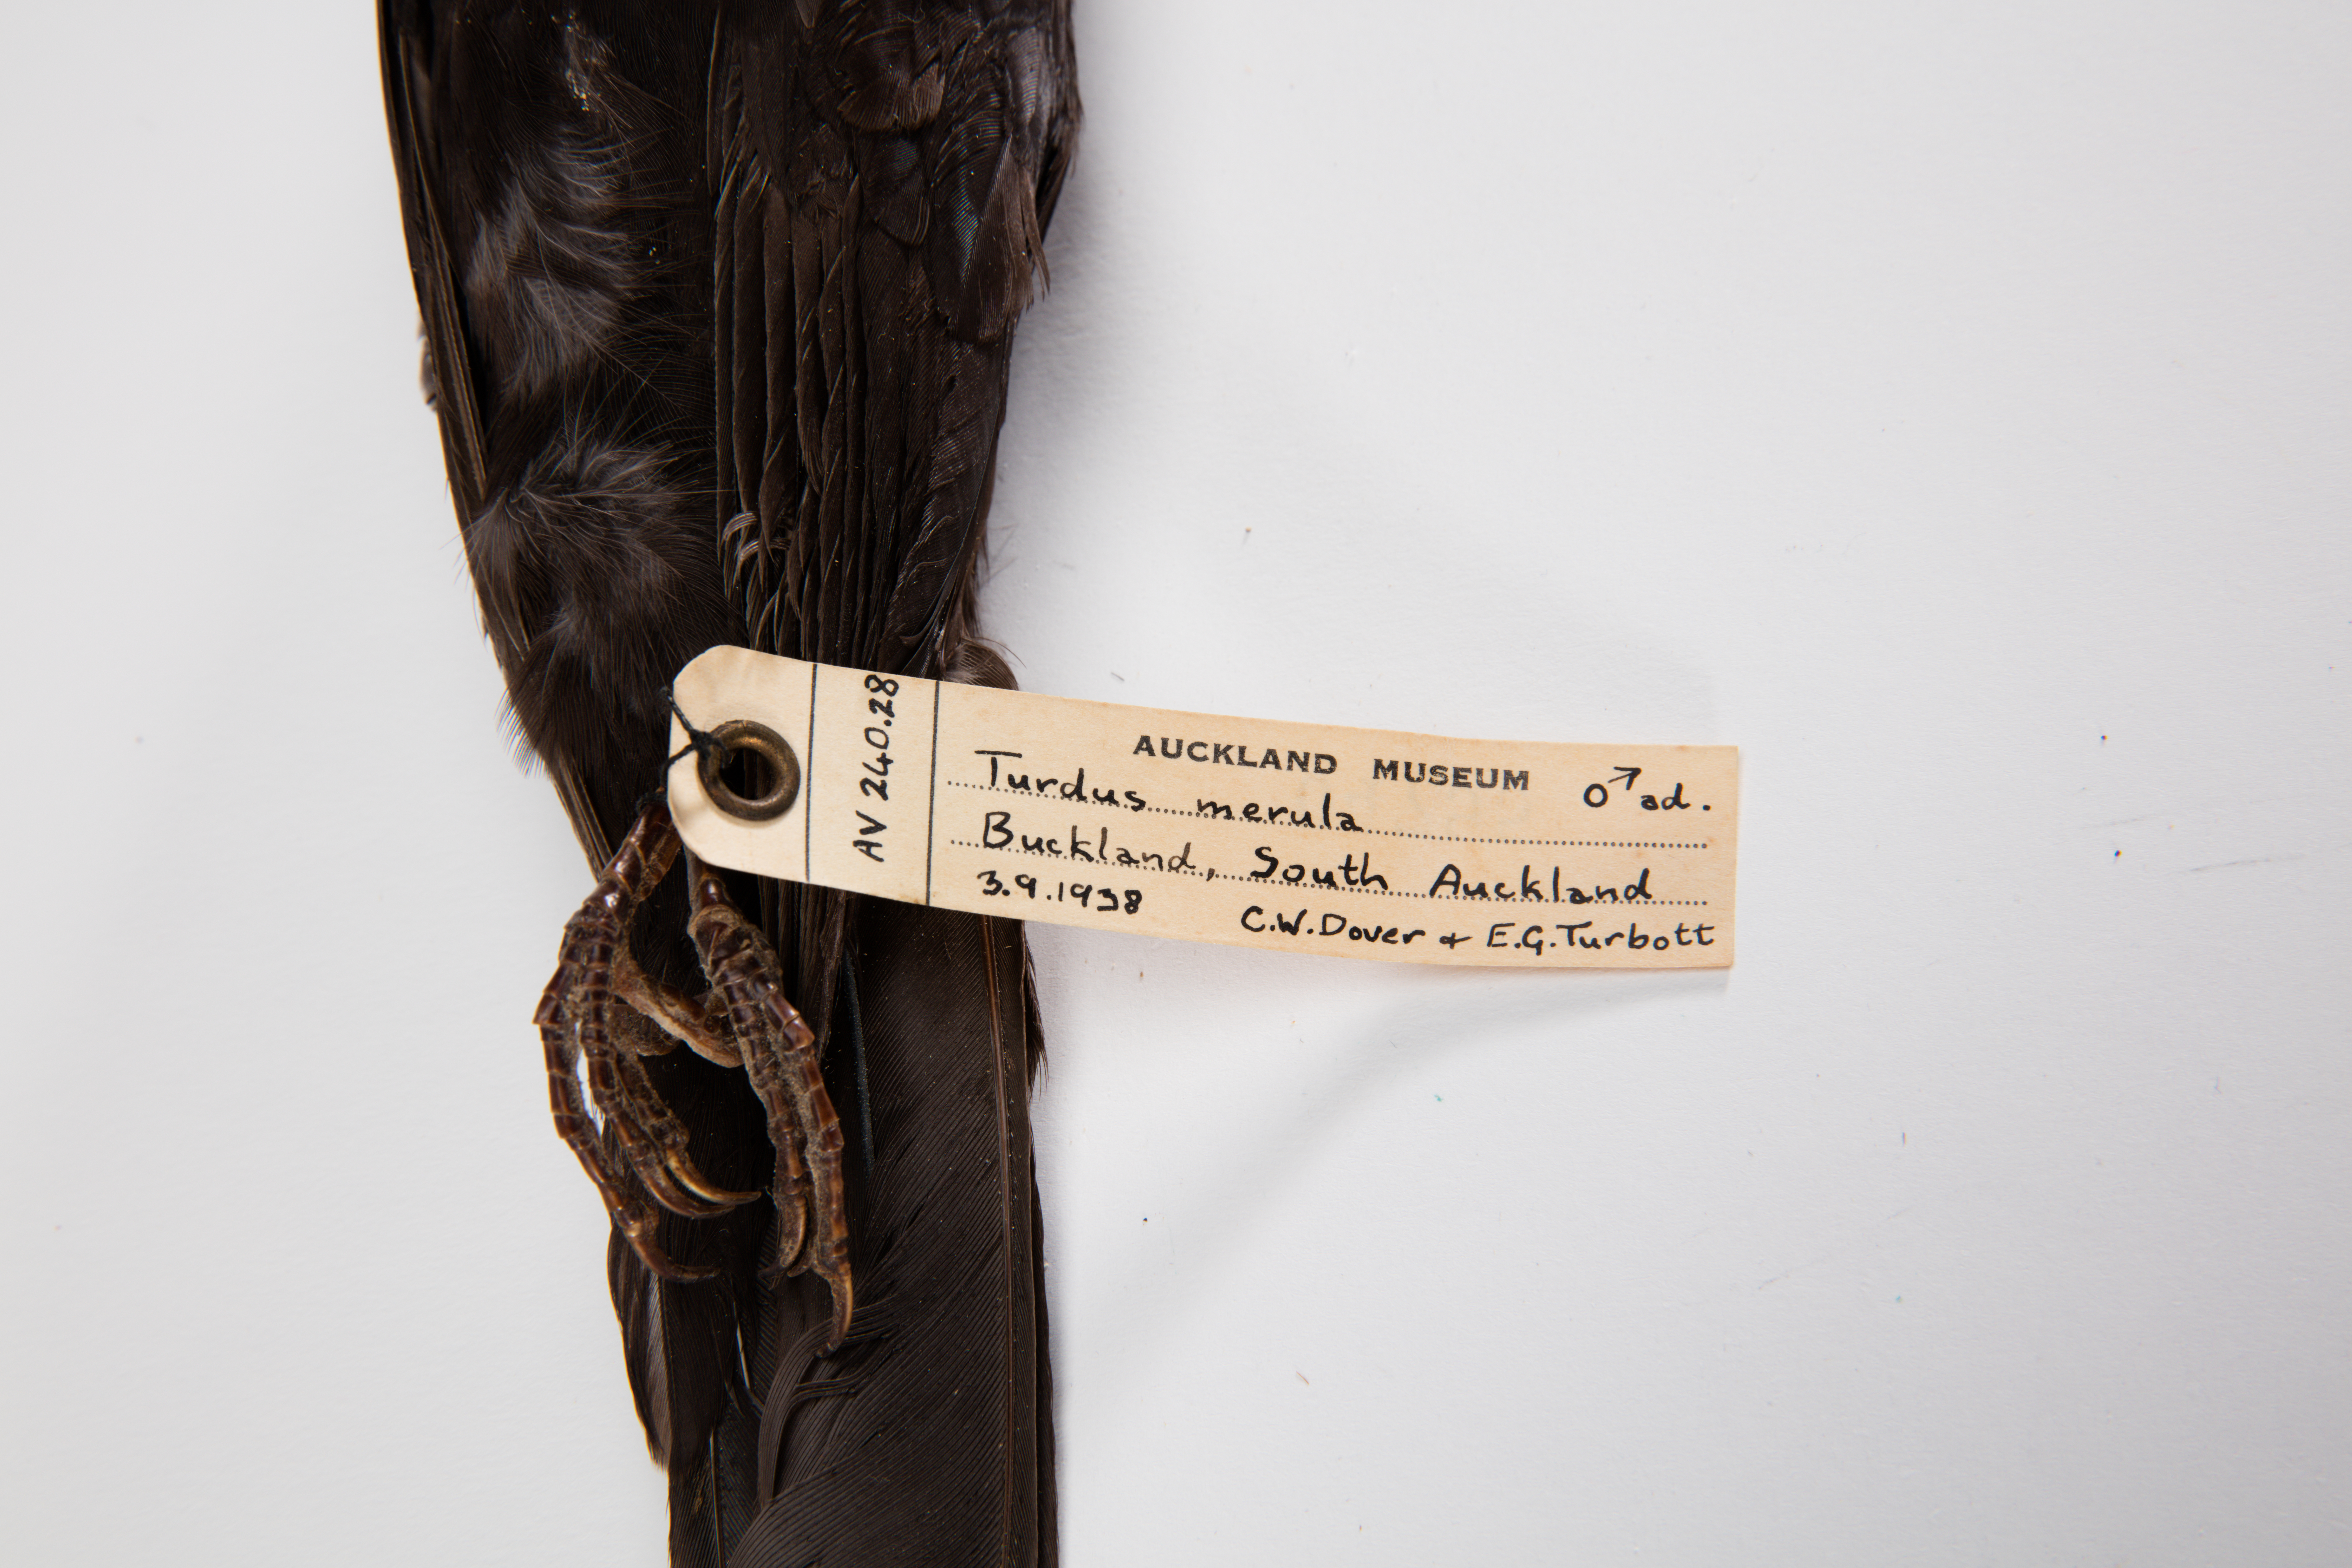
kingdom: Animalia
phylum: Chordata
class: Aves
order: Passeriformes
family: Turdidae
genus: Turdus
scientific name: Turdus merula
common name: Common blackbird
